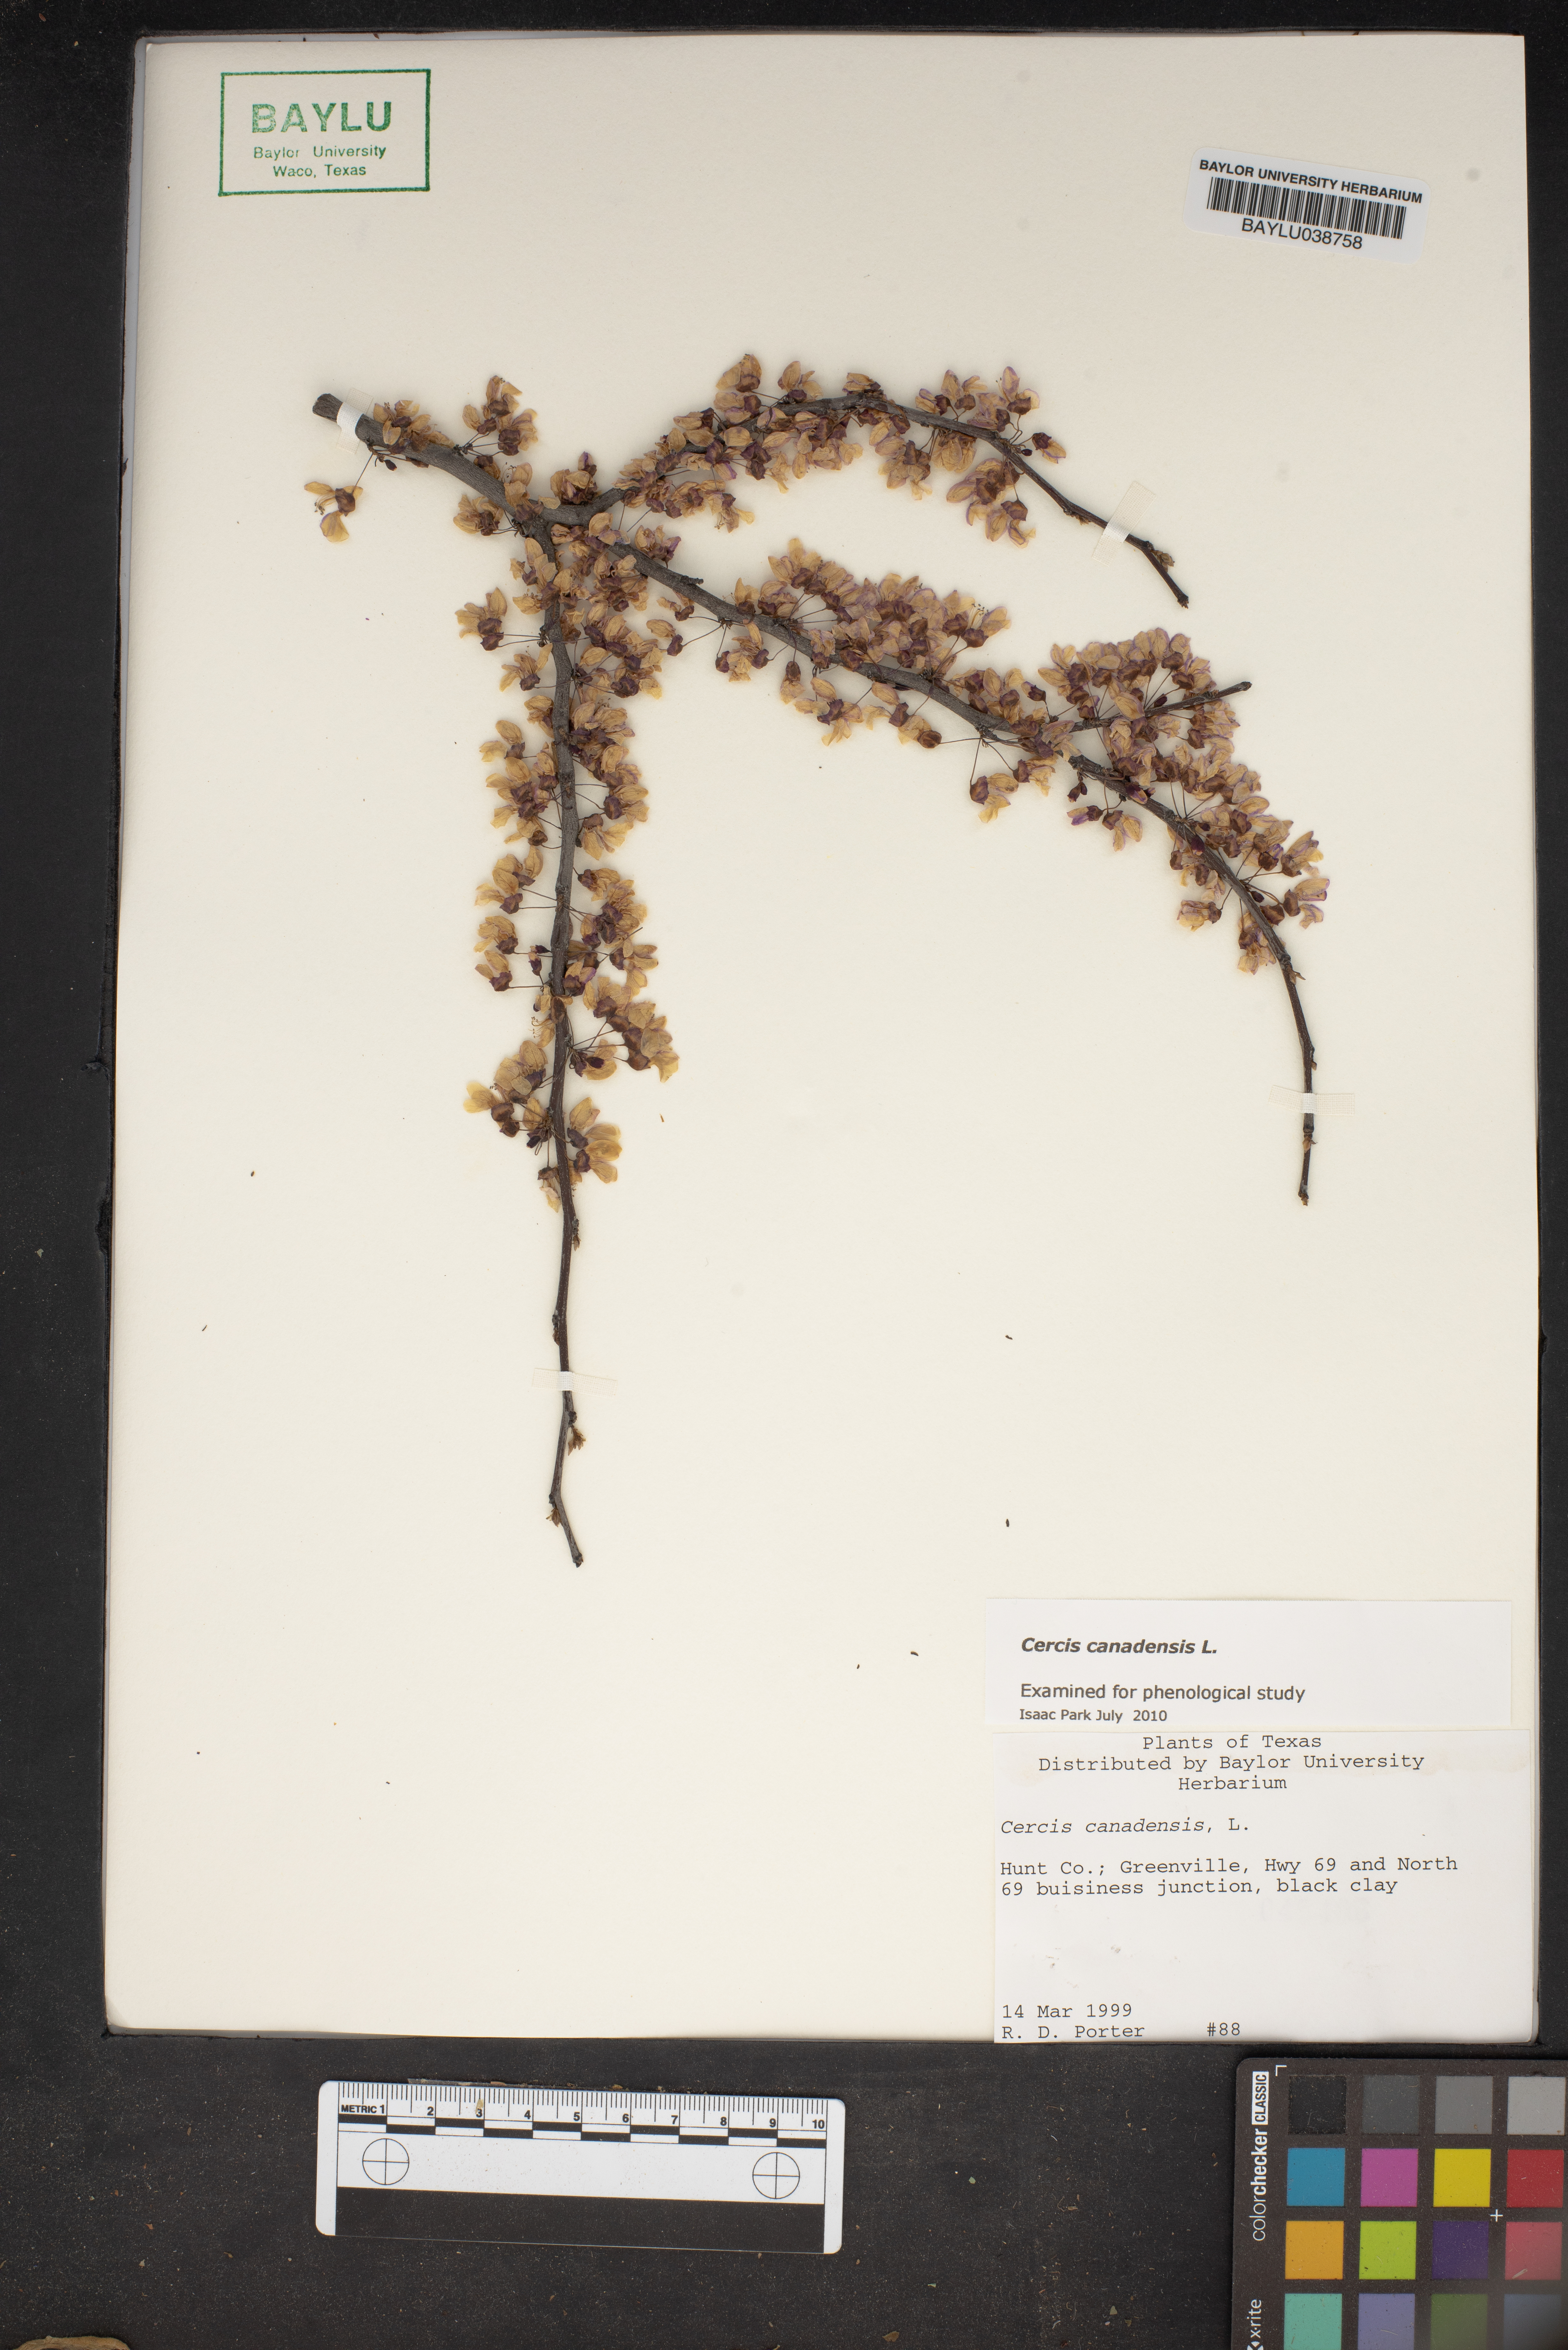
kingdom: Plantae
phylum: Tracheophyta
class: Magnoliopsida
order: Fabales
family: Fabaceae
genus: Cercis
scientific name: Cercis canadensis
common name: Eastern redbud
